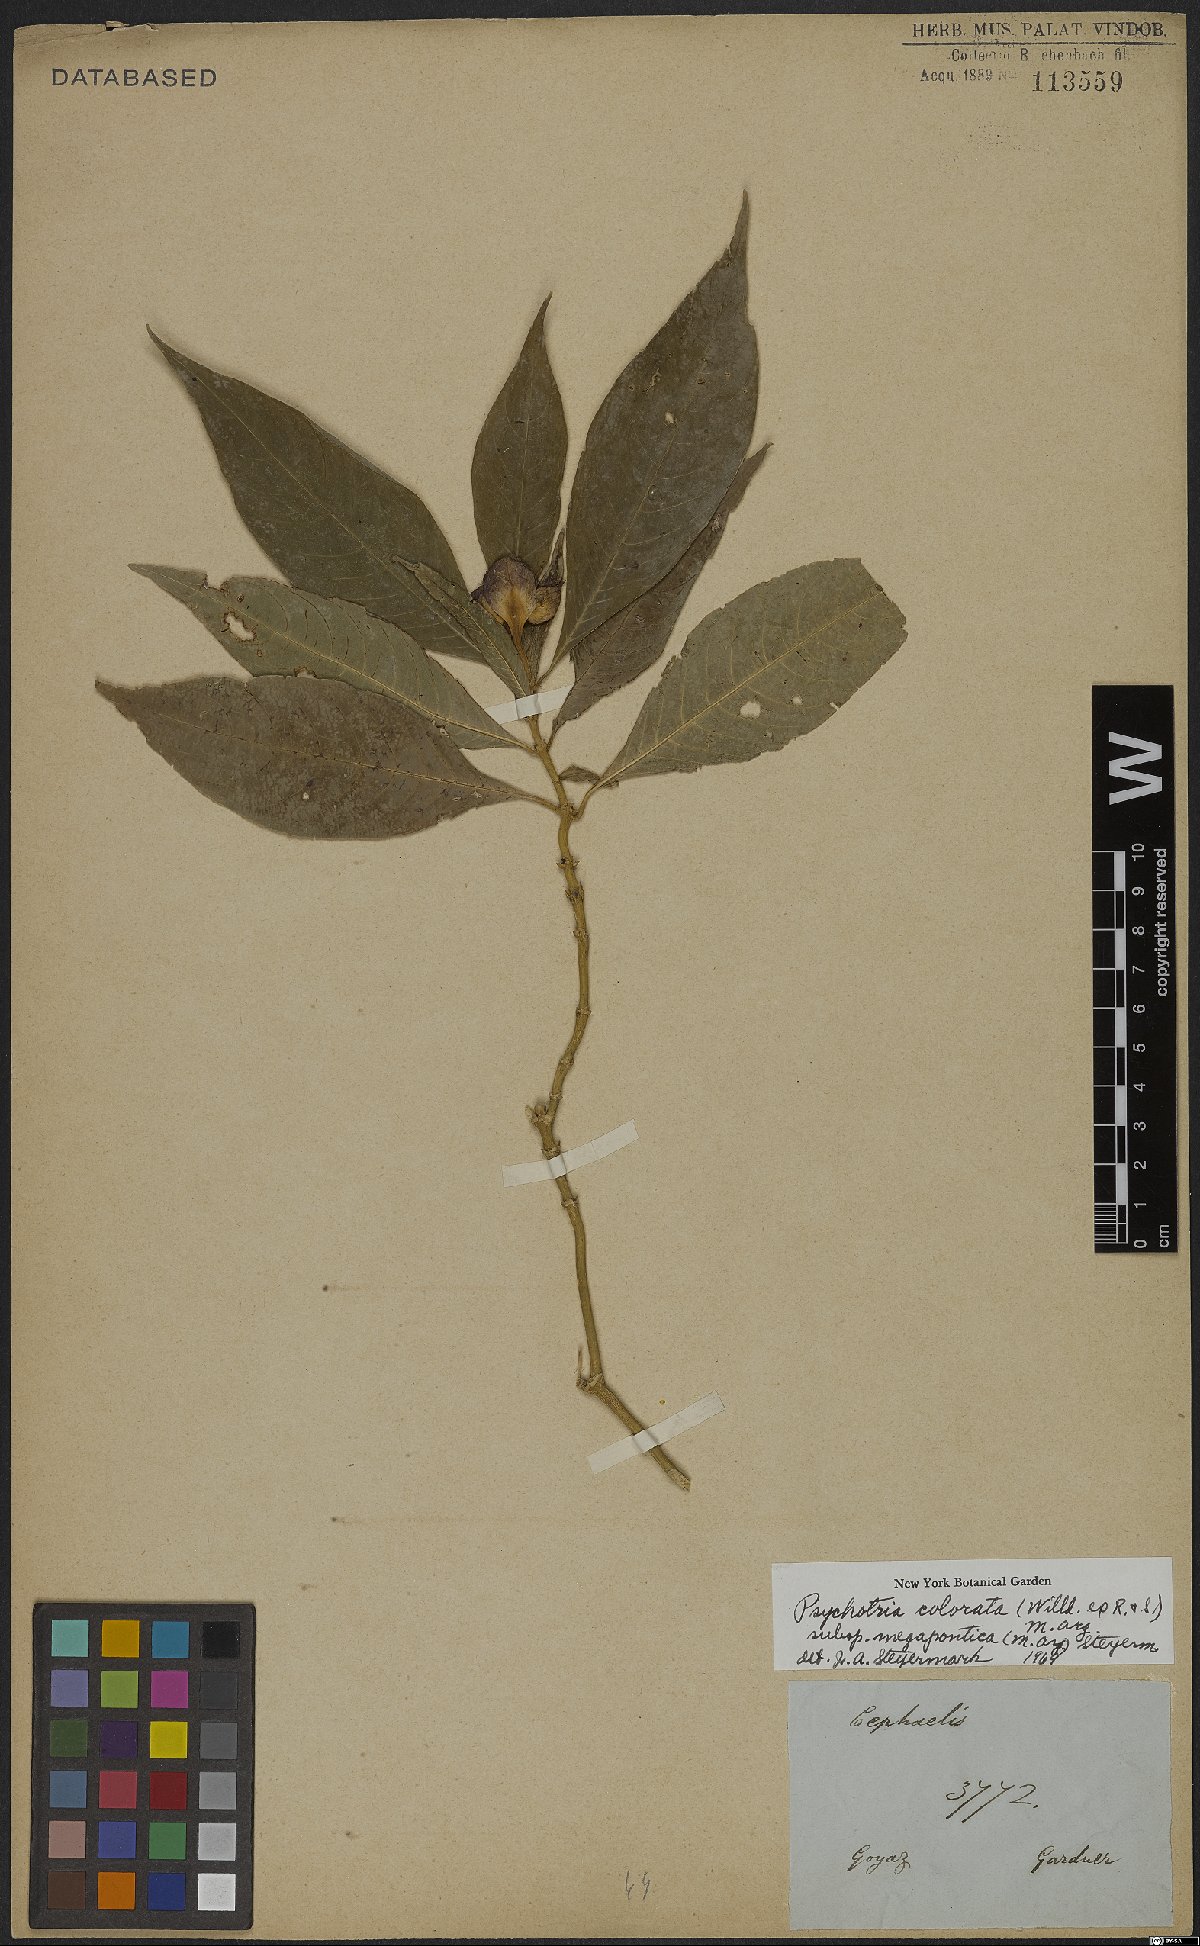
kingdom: Plantae
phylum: Tracheophyta
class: Magnoliopsida
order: Gentianales
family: Rubiaceae
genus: Palicourea
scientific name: Palicourea colorata
